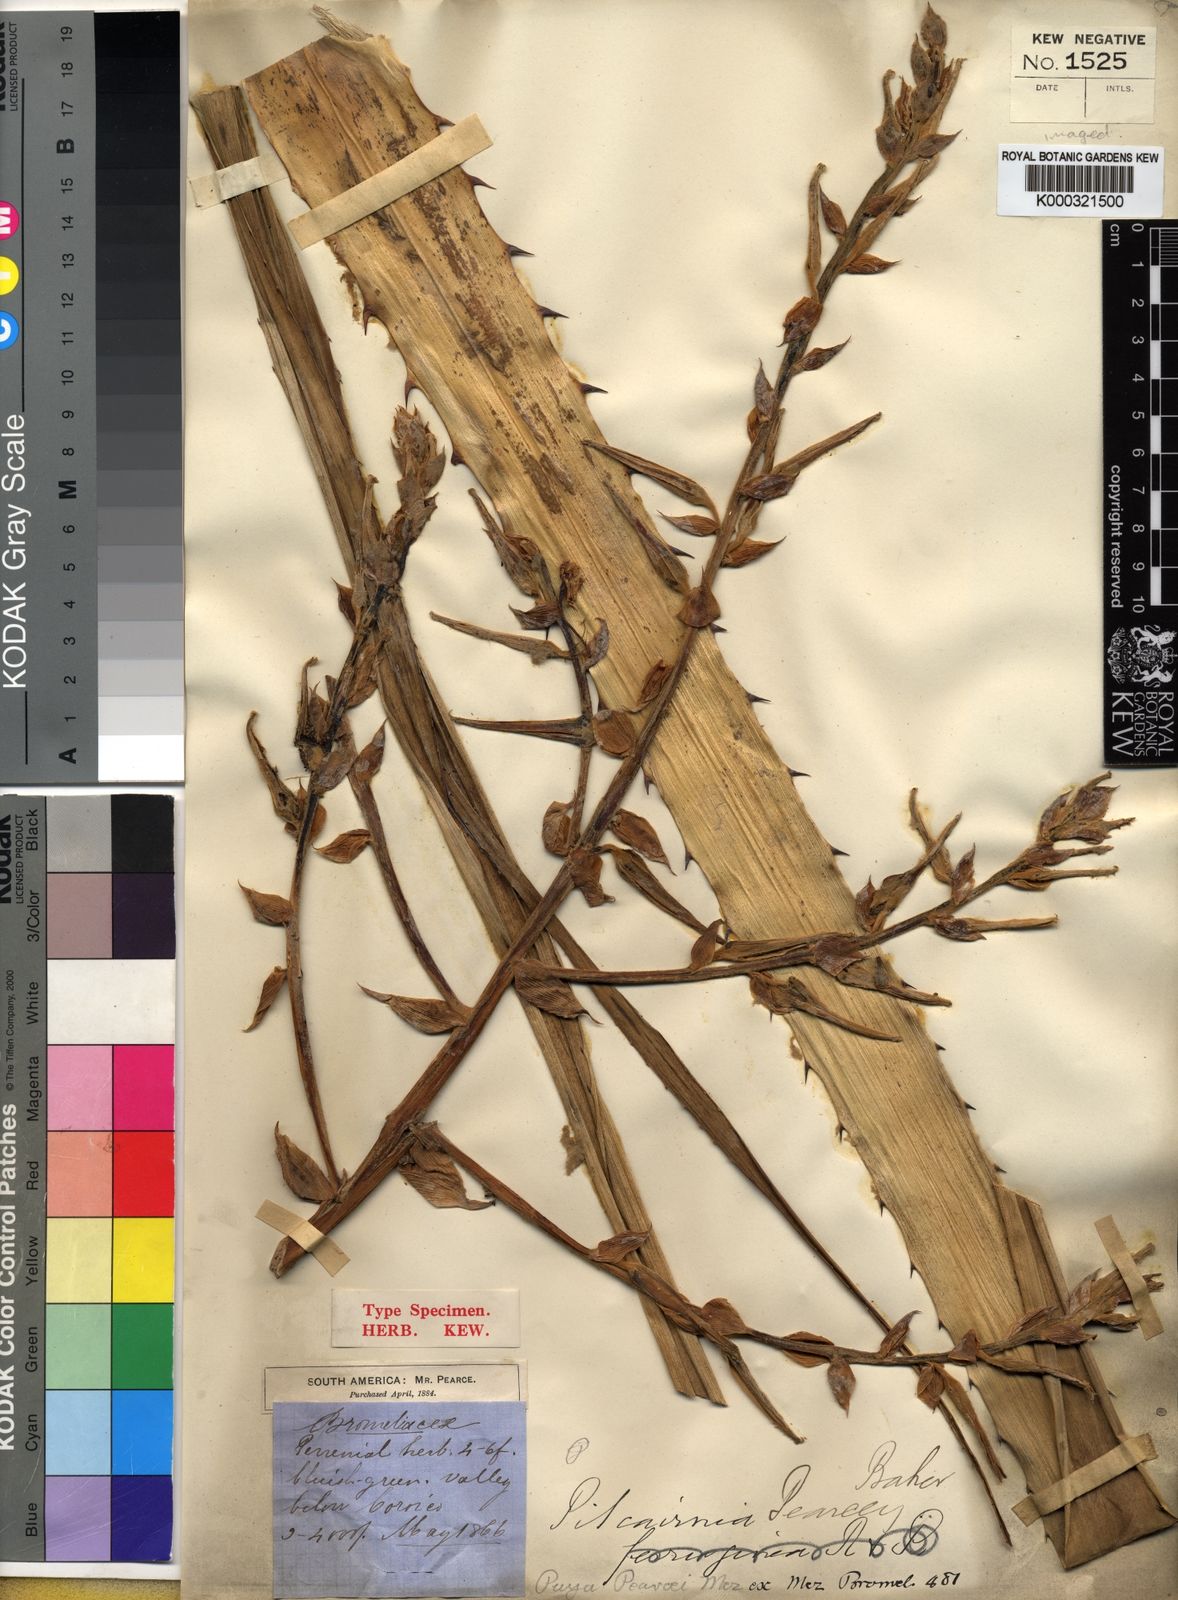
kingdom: Plantae
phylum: Tracheophyta
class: Liliopsida
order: Poales
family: Bromeliaceae
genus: Puya
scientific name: Puya pearcei
